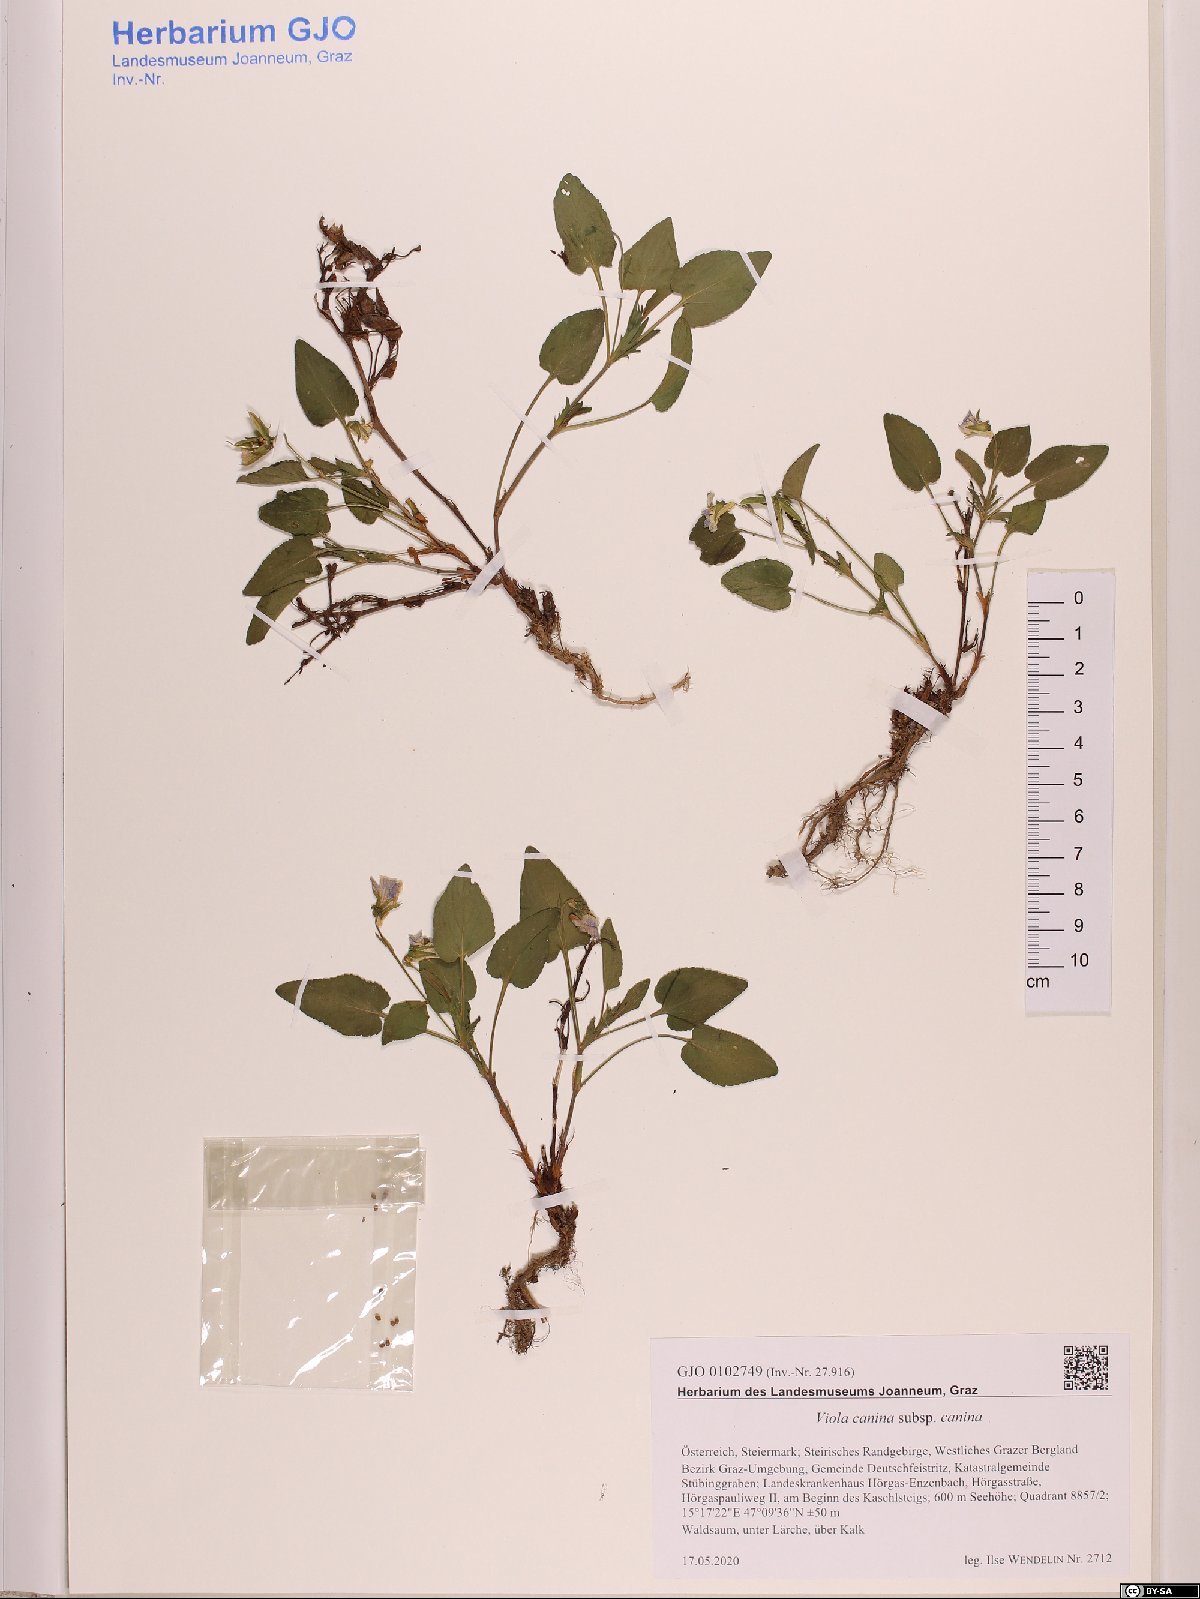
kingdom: Plantae
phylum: Tracheophyta
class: Magnoliopsida
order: Malpighiales
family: Violaceae
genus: Viola
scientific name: Viola canina
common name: Heath dog-violet
